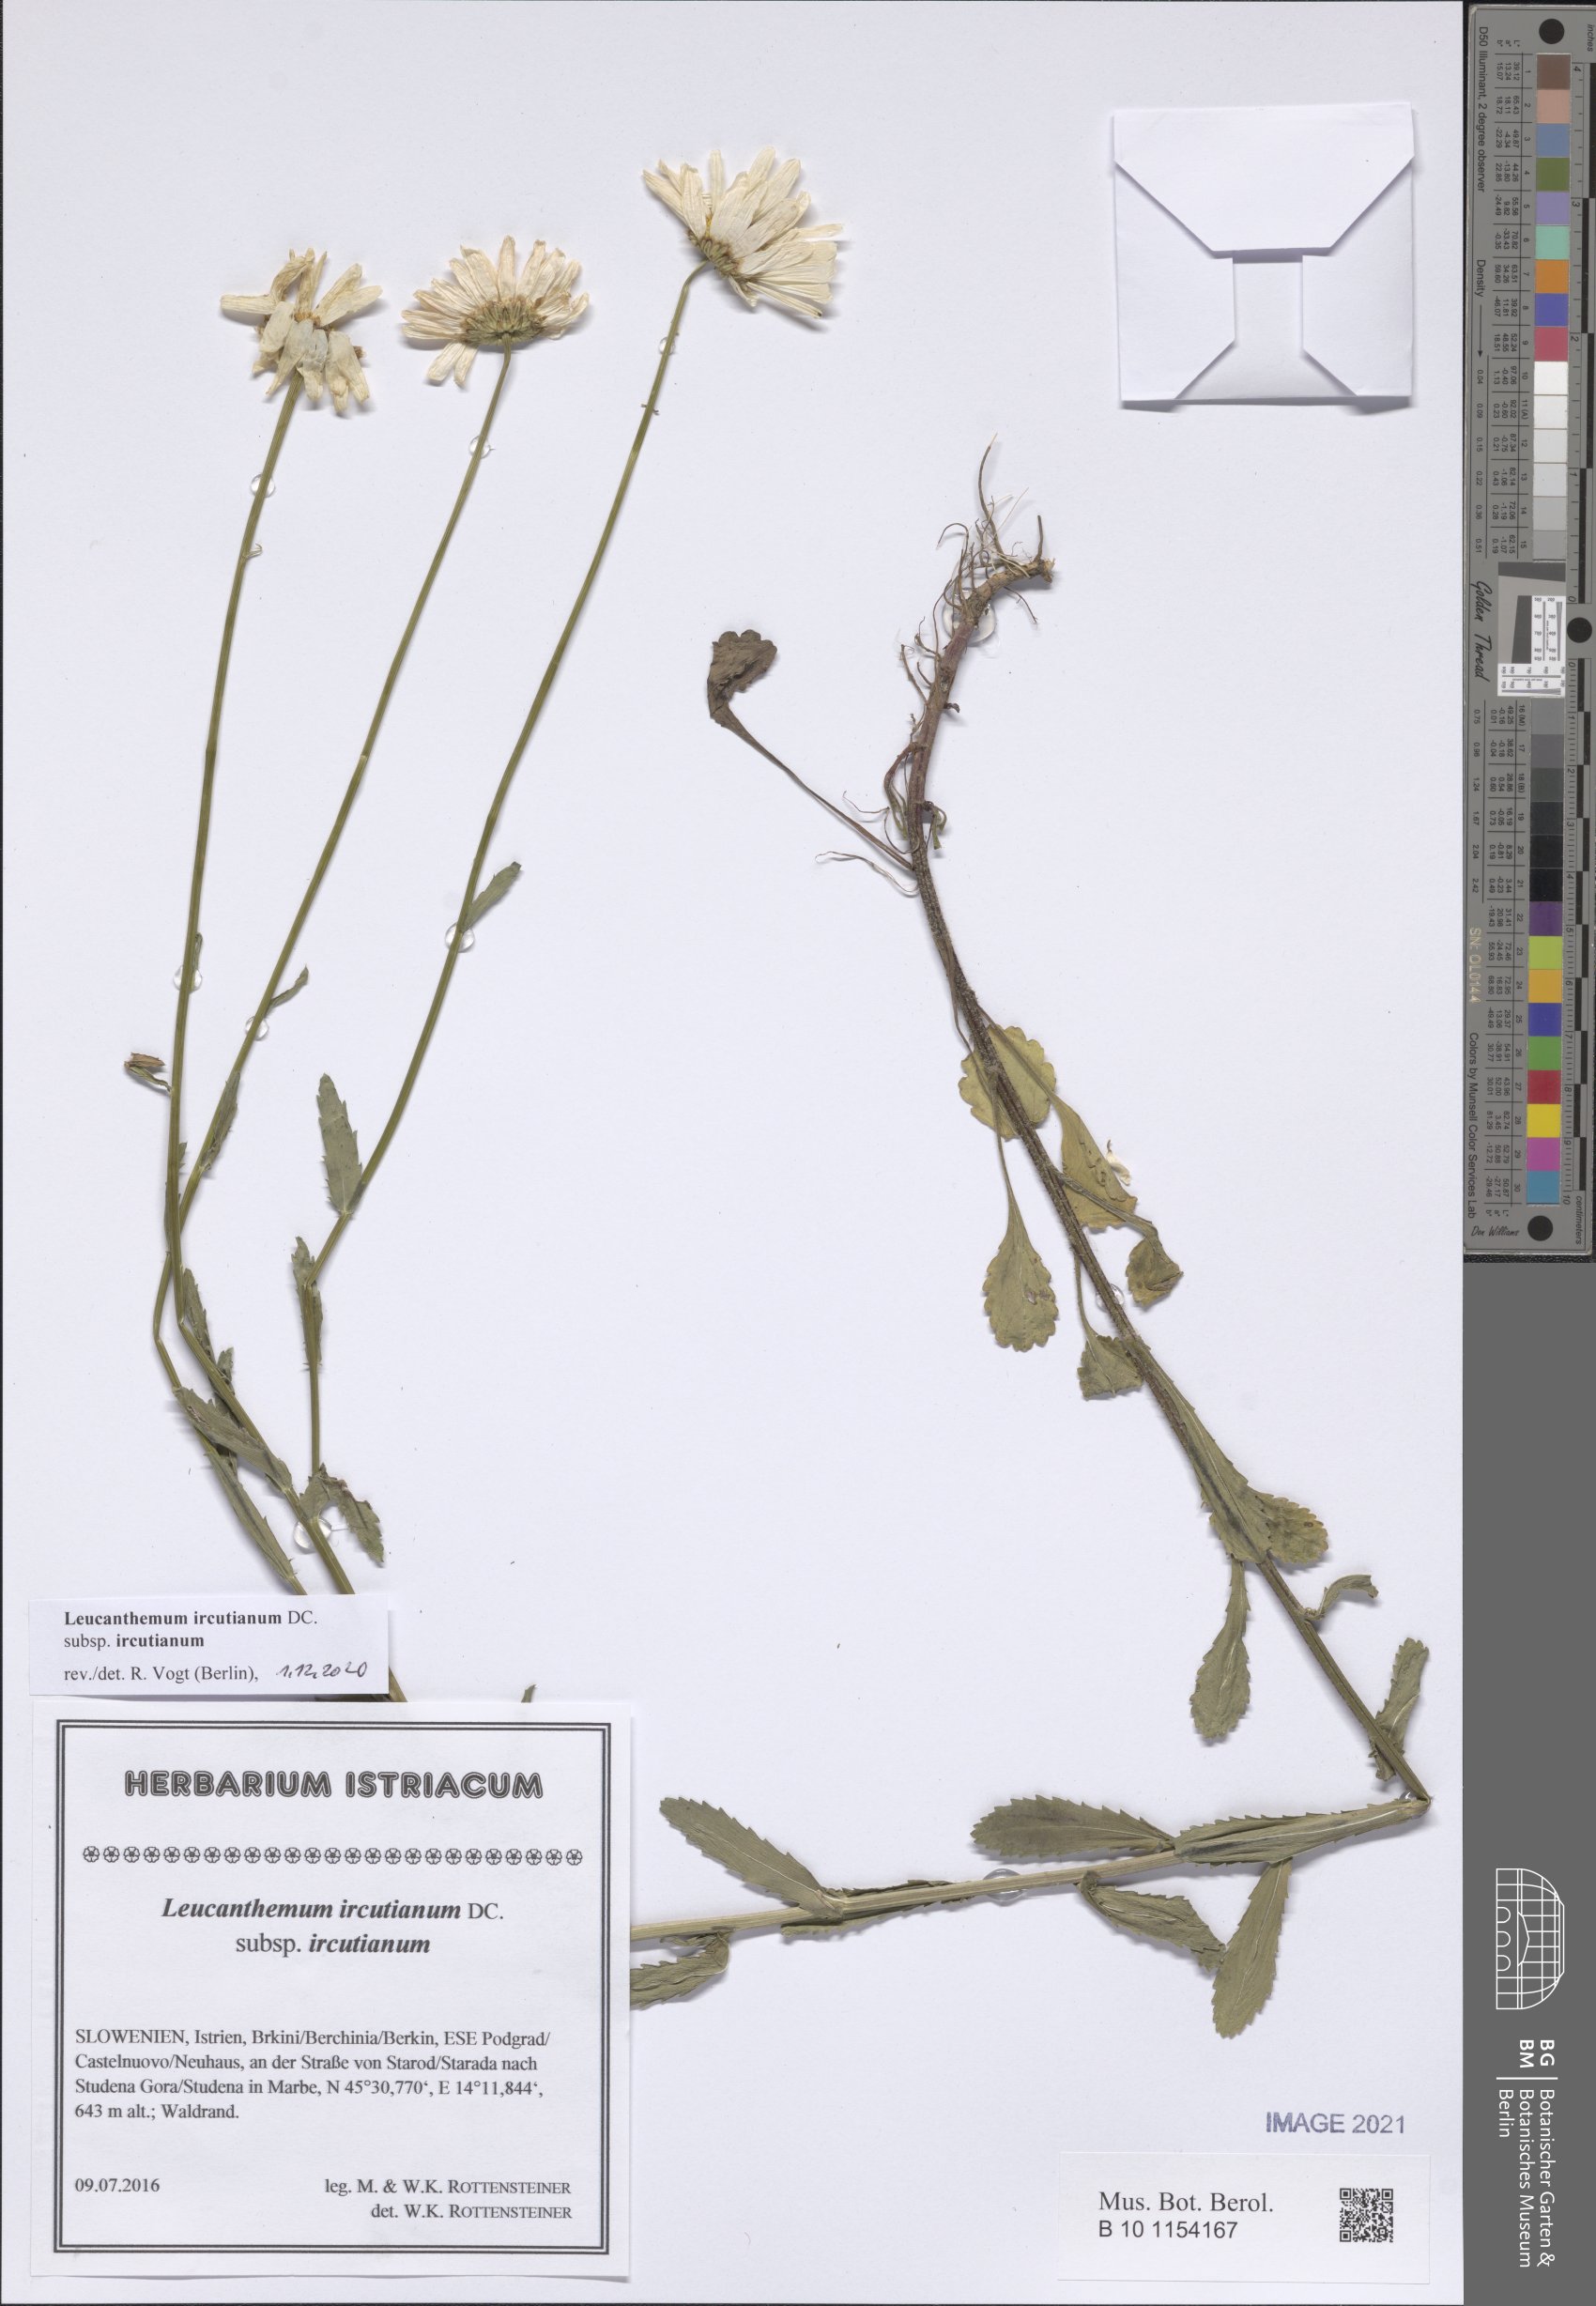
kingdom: Plantae
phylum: Tracheophyta
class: Magnoliopsida
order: Asterales
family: Asteraceae
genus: Leucanthemum
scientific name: Leucanthemum ircutianum
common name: Daisy
